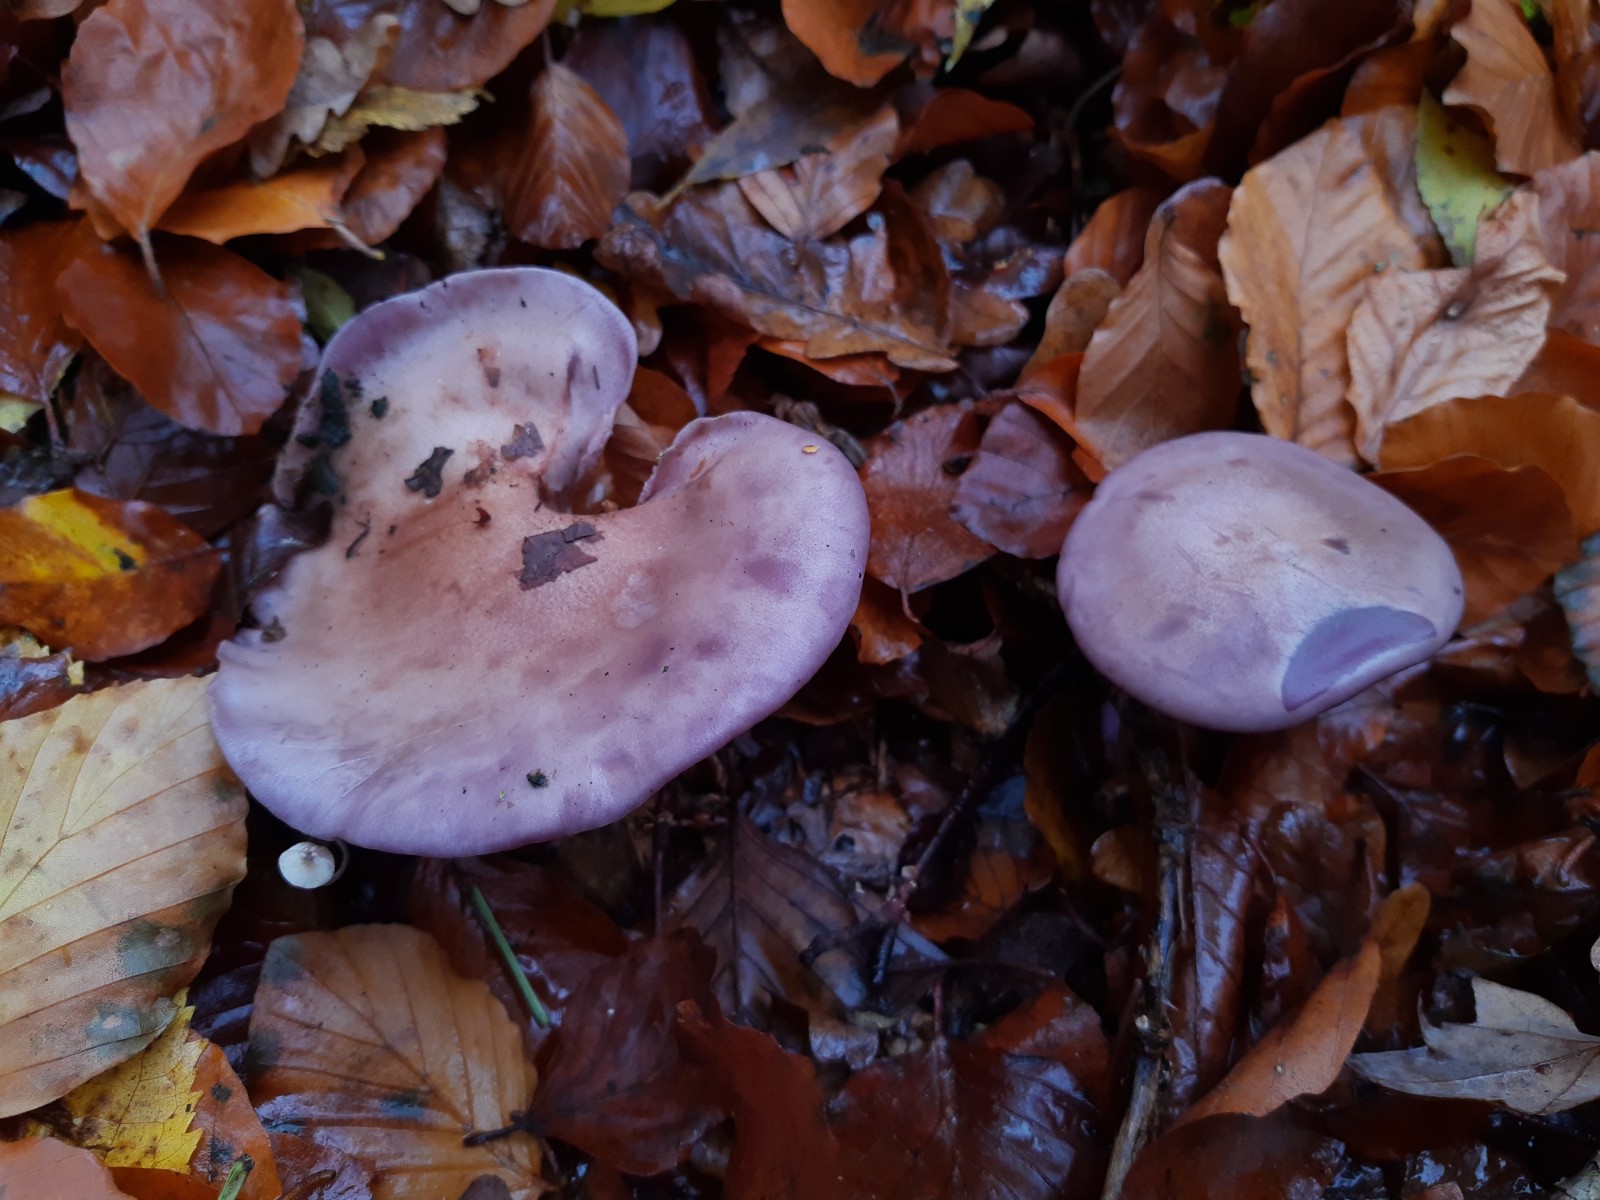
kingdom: Fungi
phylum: Basidiomycota
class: Agaricomycetes
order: Agaricales
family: Tricholomataceae
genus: Lepista
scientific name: Lepista nuda
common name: violet hekseringshat
